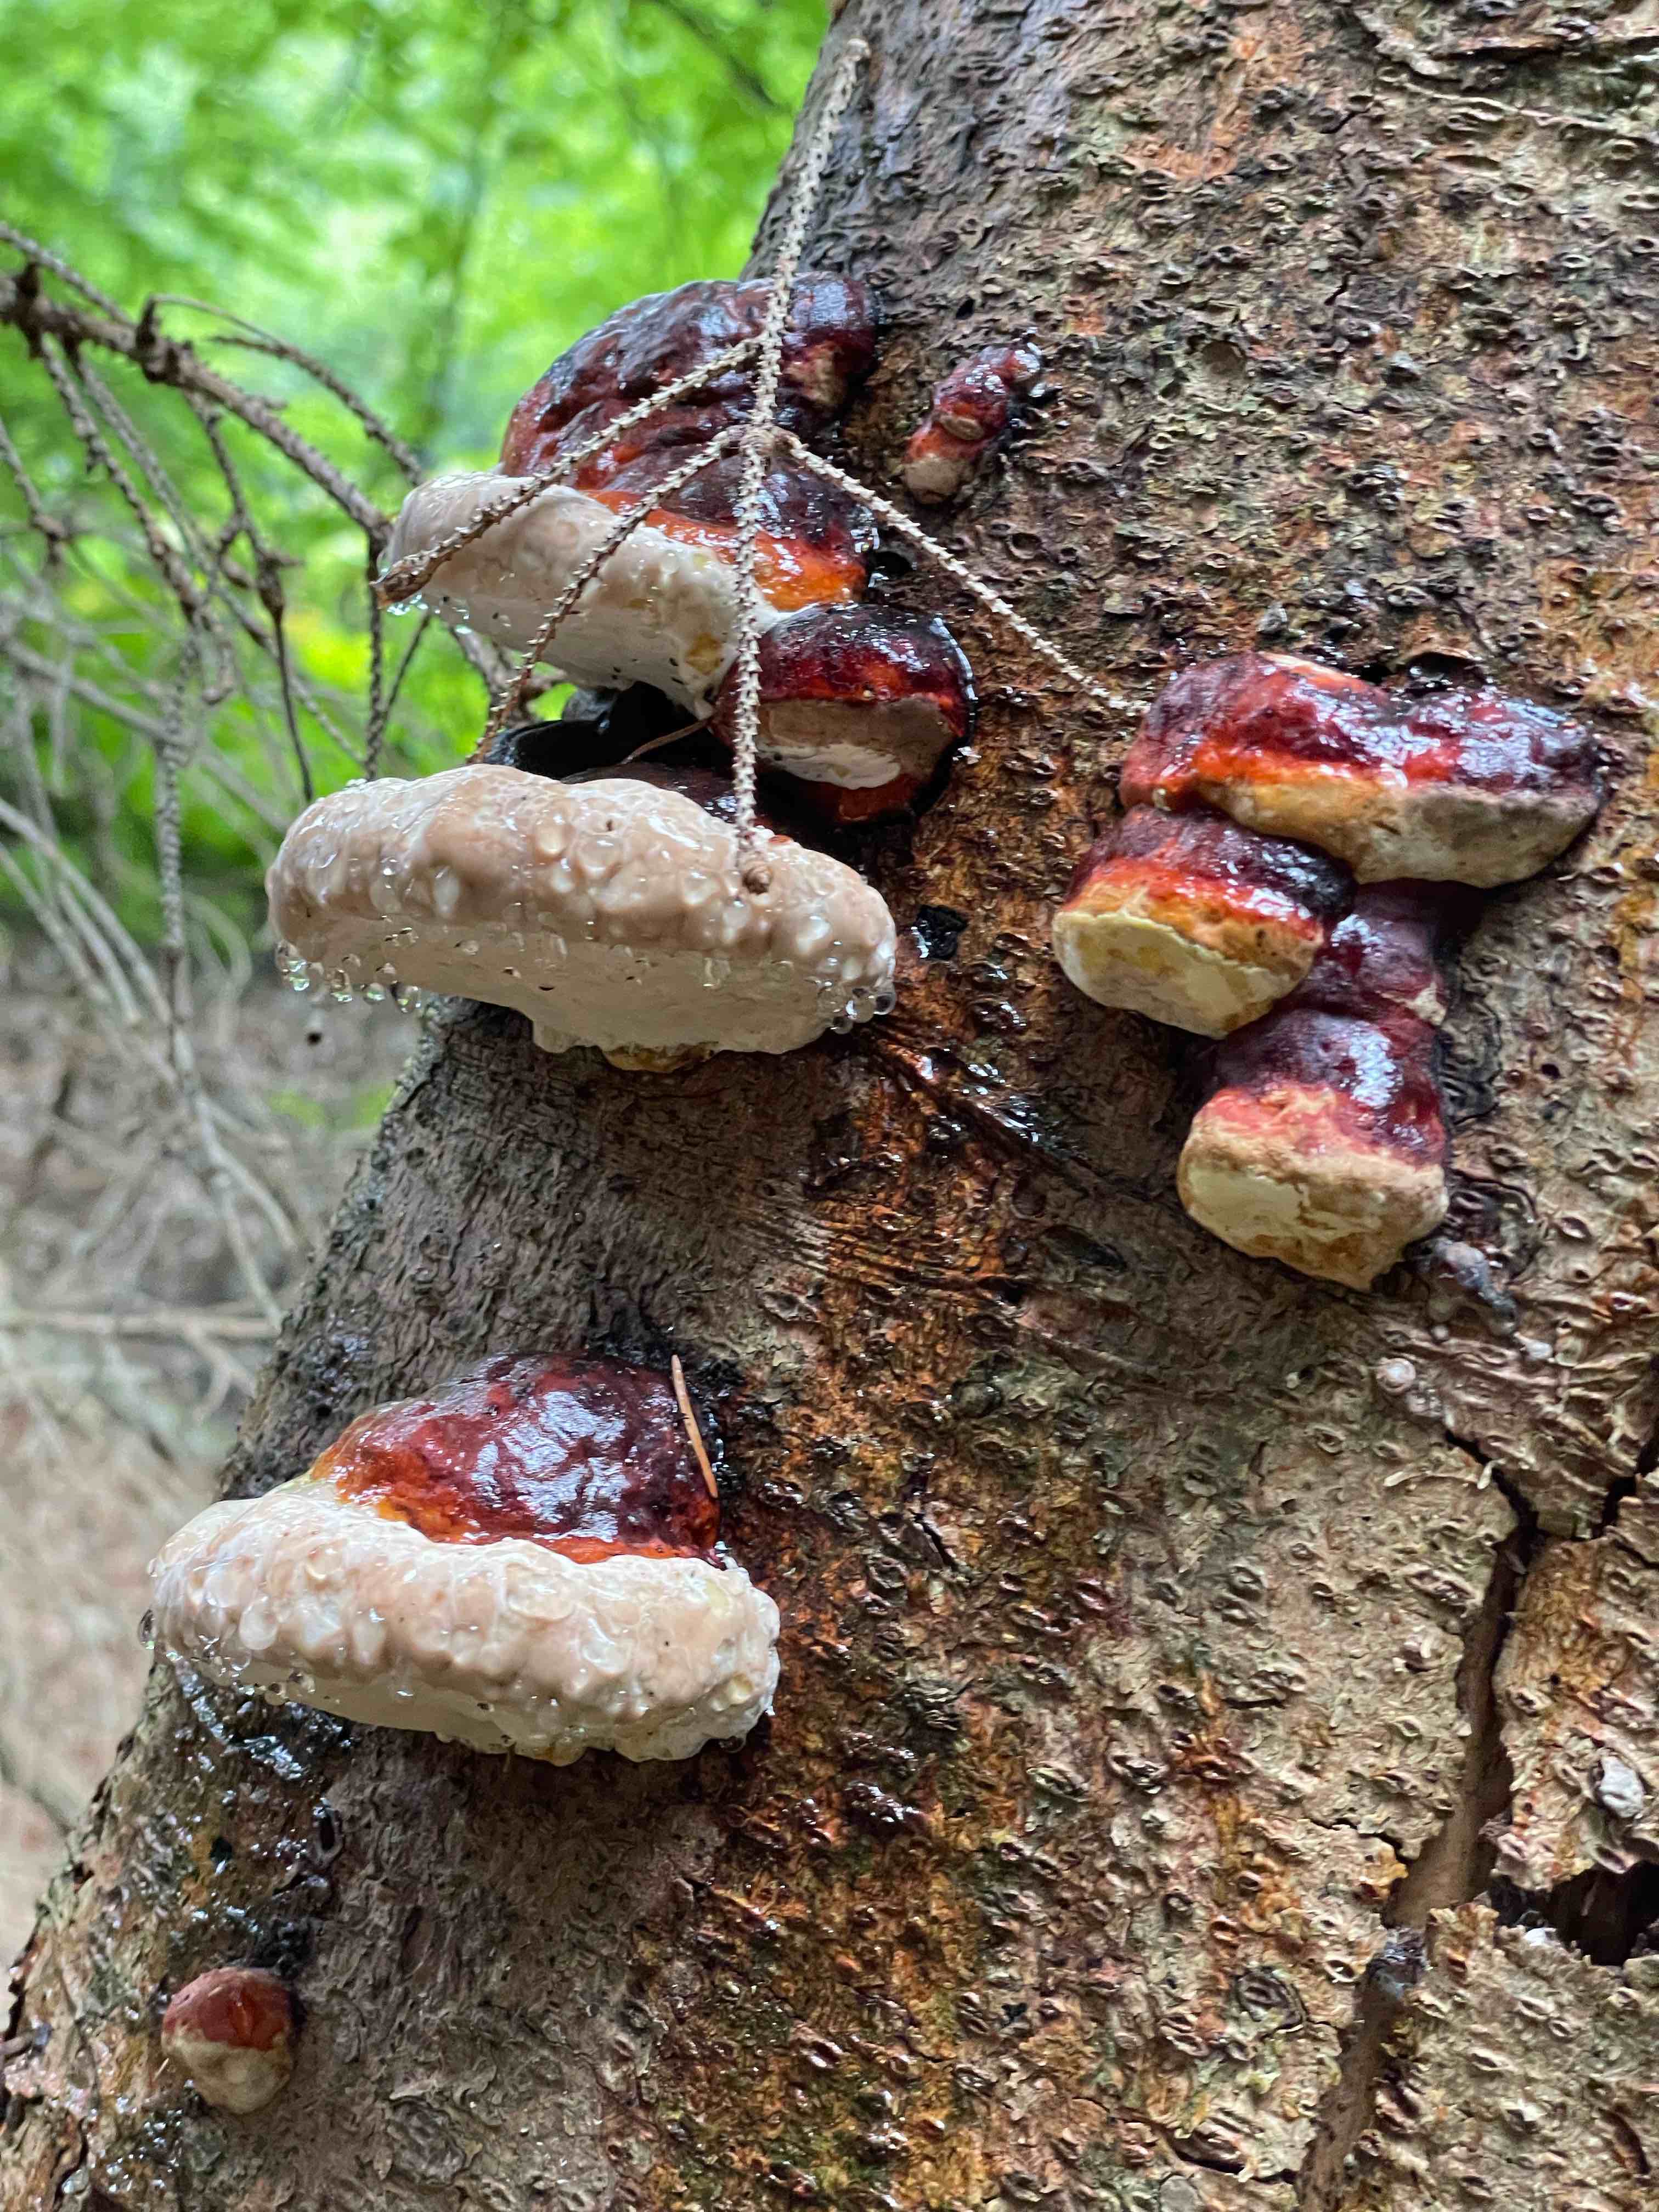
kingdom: Fungi
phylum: Basidiomycota
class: Agaricomycetes
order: Polyporales
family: Fomitopsidaceae
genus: Fomitopsis
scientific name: Fomitopsis pinicola
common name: randbæltet hovporesvamp
